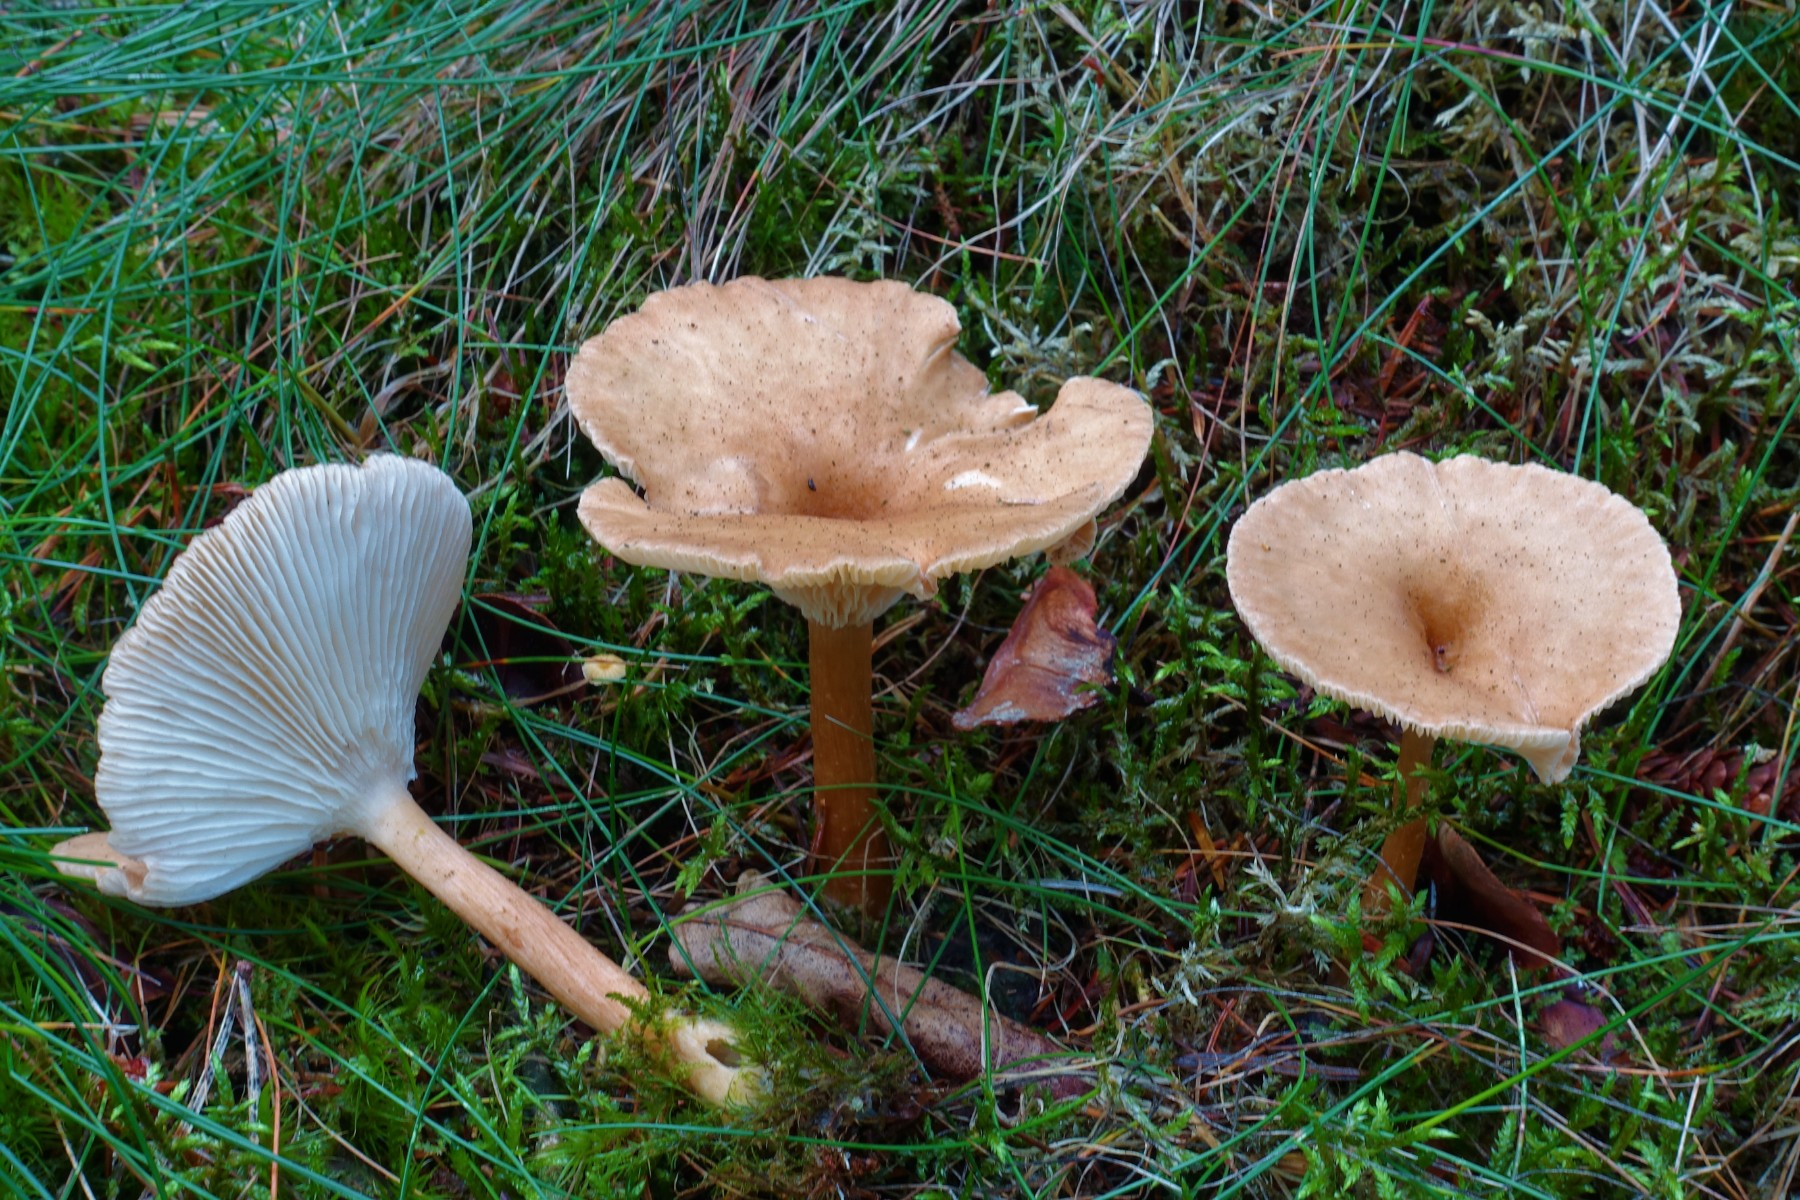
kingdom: Fungi
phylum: Basidiomycota
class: Agaricomycetes
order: Agaricales
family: Tricholomataceae
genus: Clitocybe
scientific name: Clitocybe costata
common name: brunstokket tragthat
